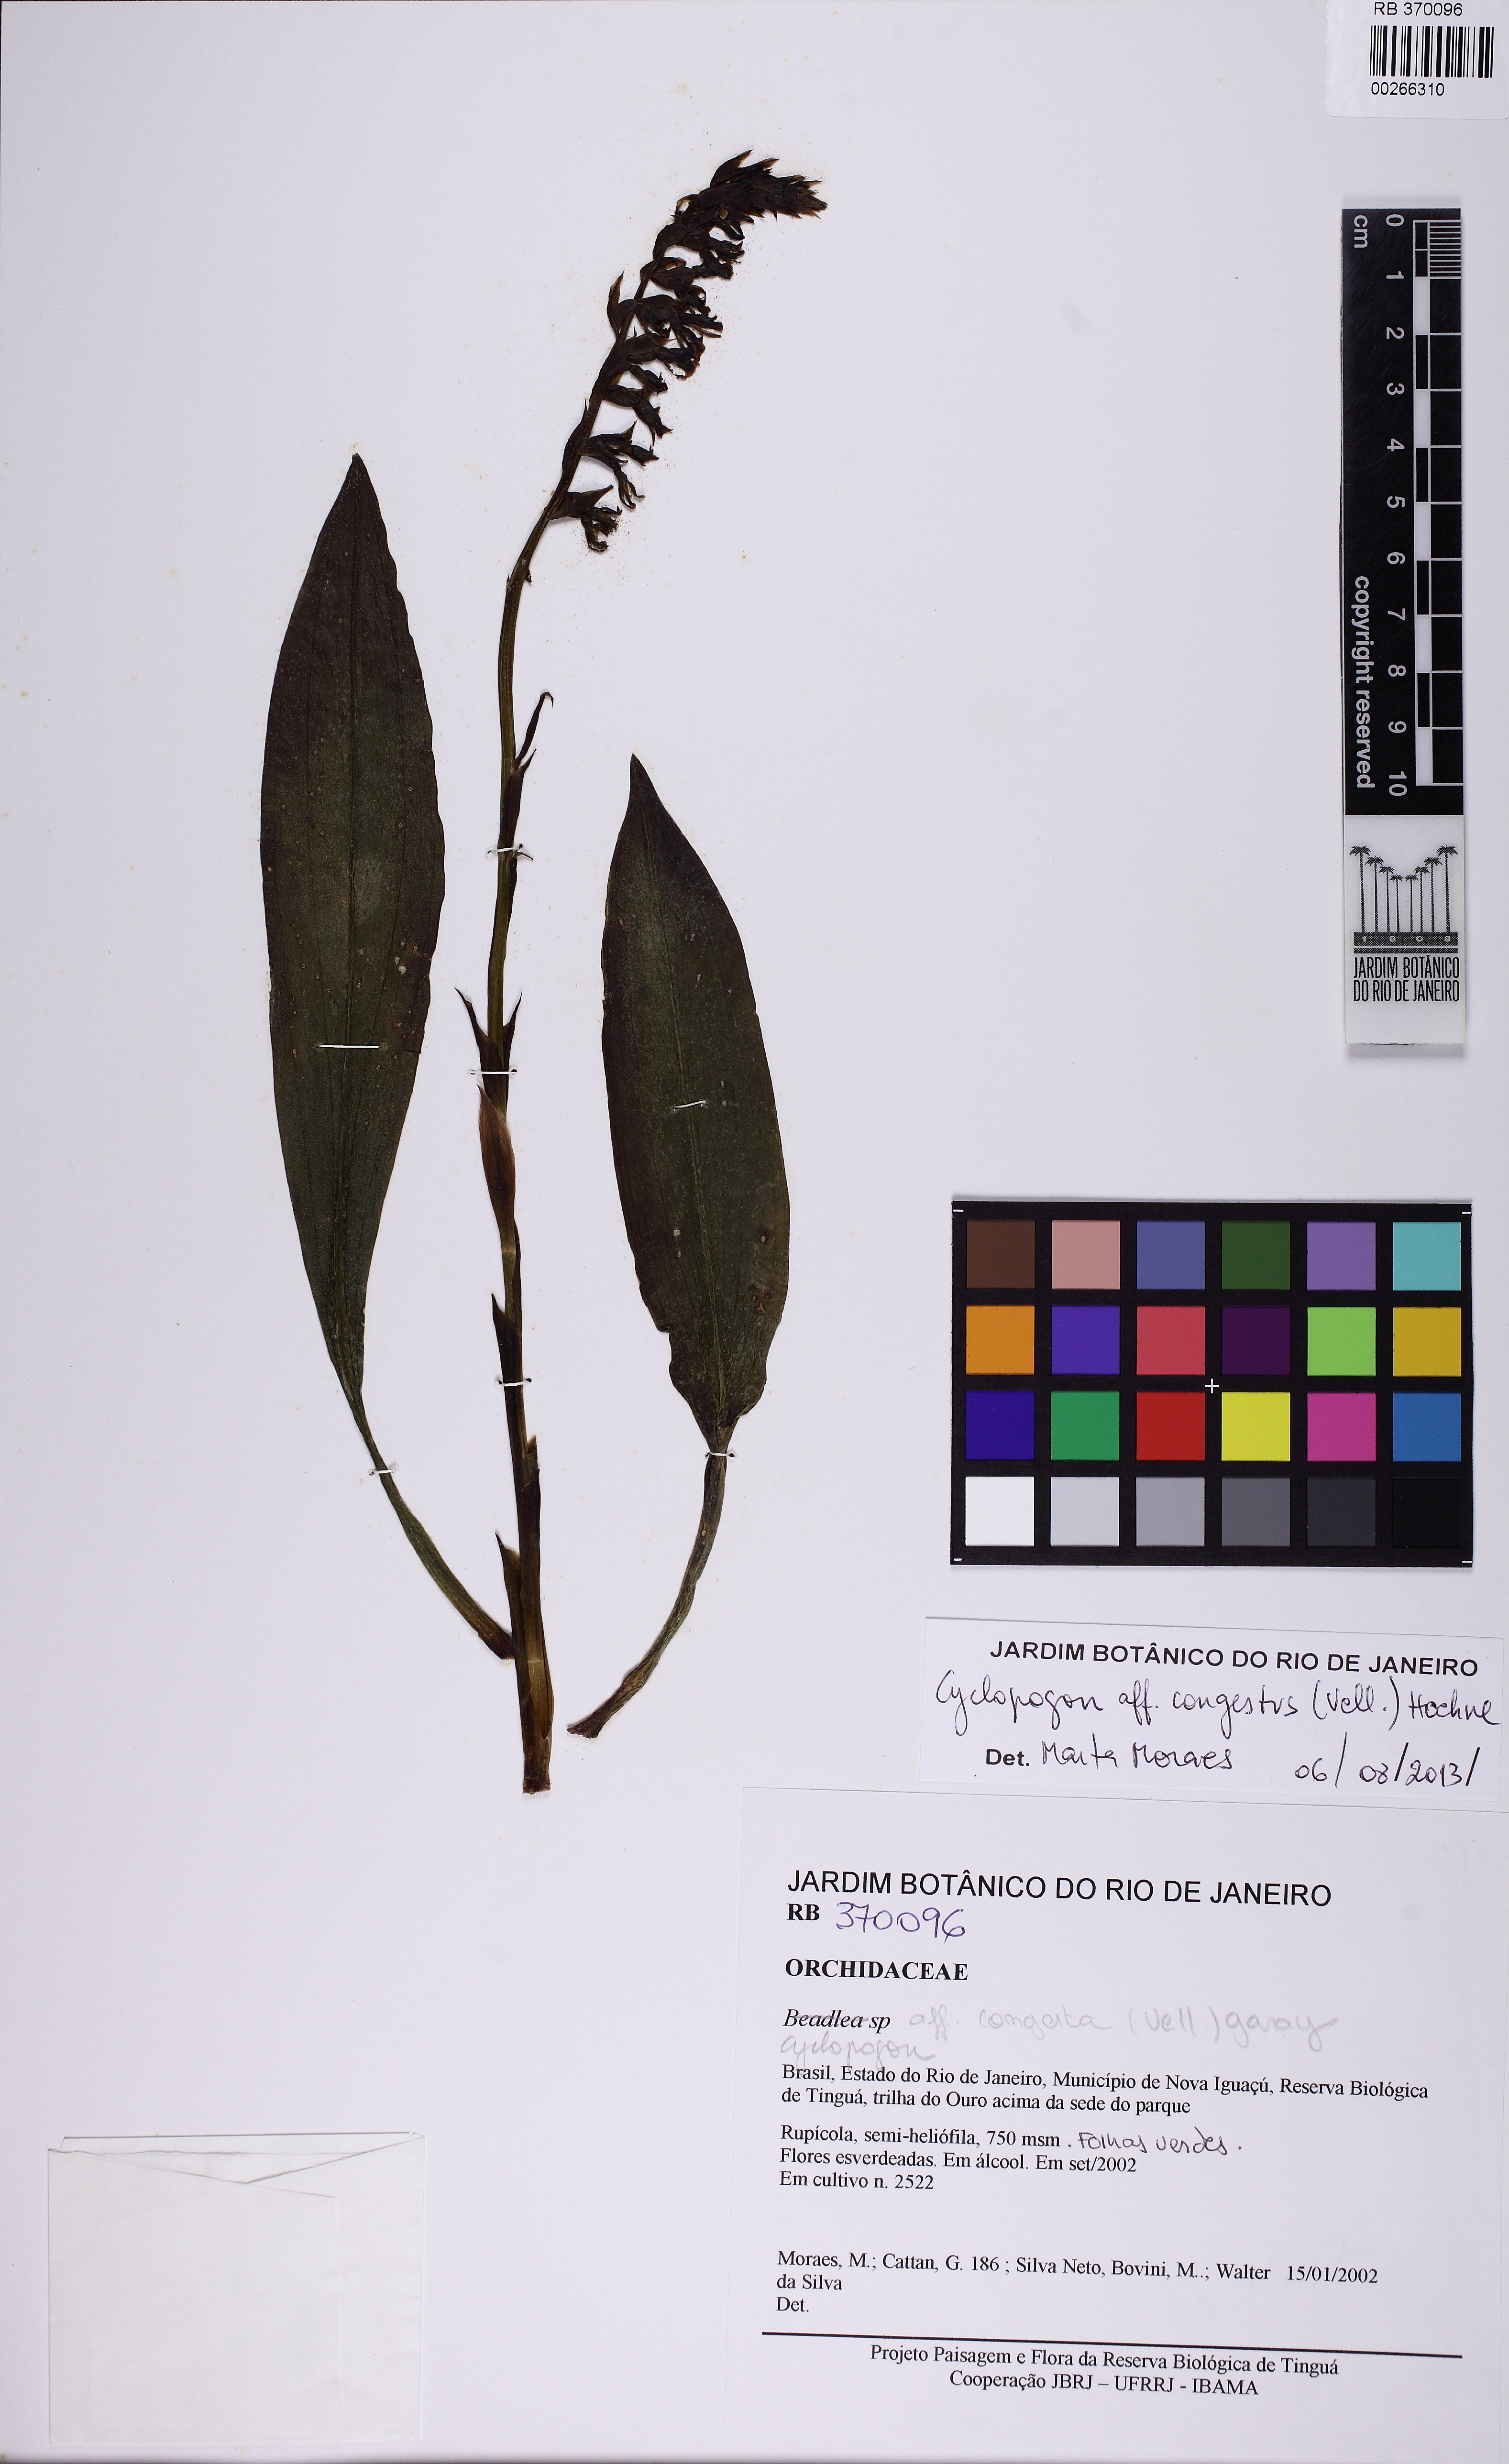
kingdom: Plantae
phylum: Tracheophyta
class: Liliopsida
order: Asparagales
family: Orchidaceae
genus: Cyclopogon
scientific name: Cyclopogon congestus
